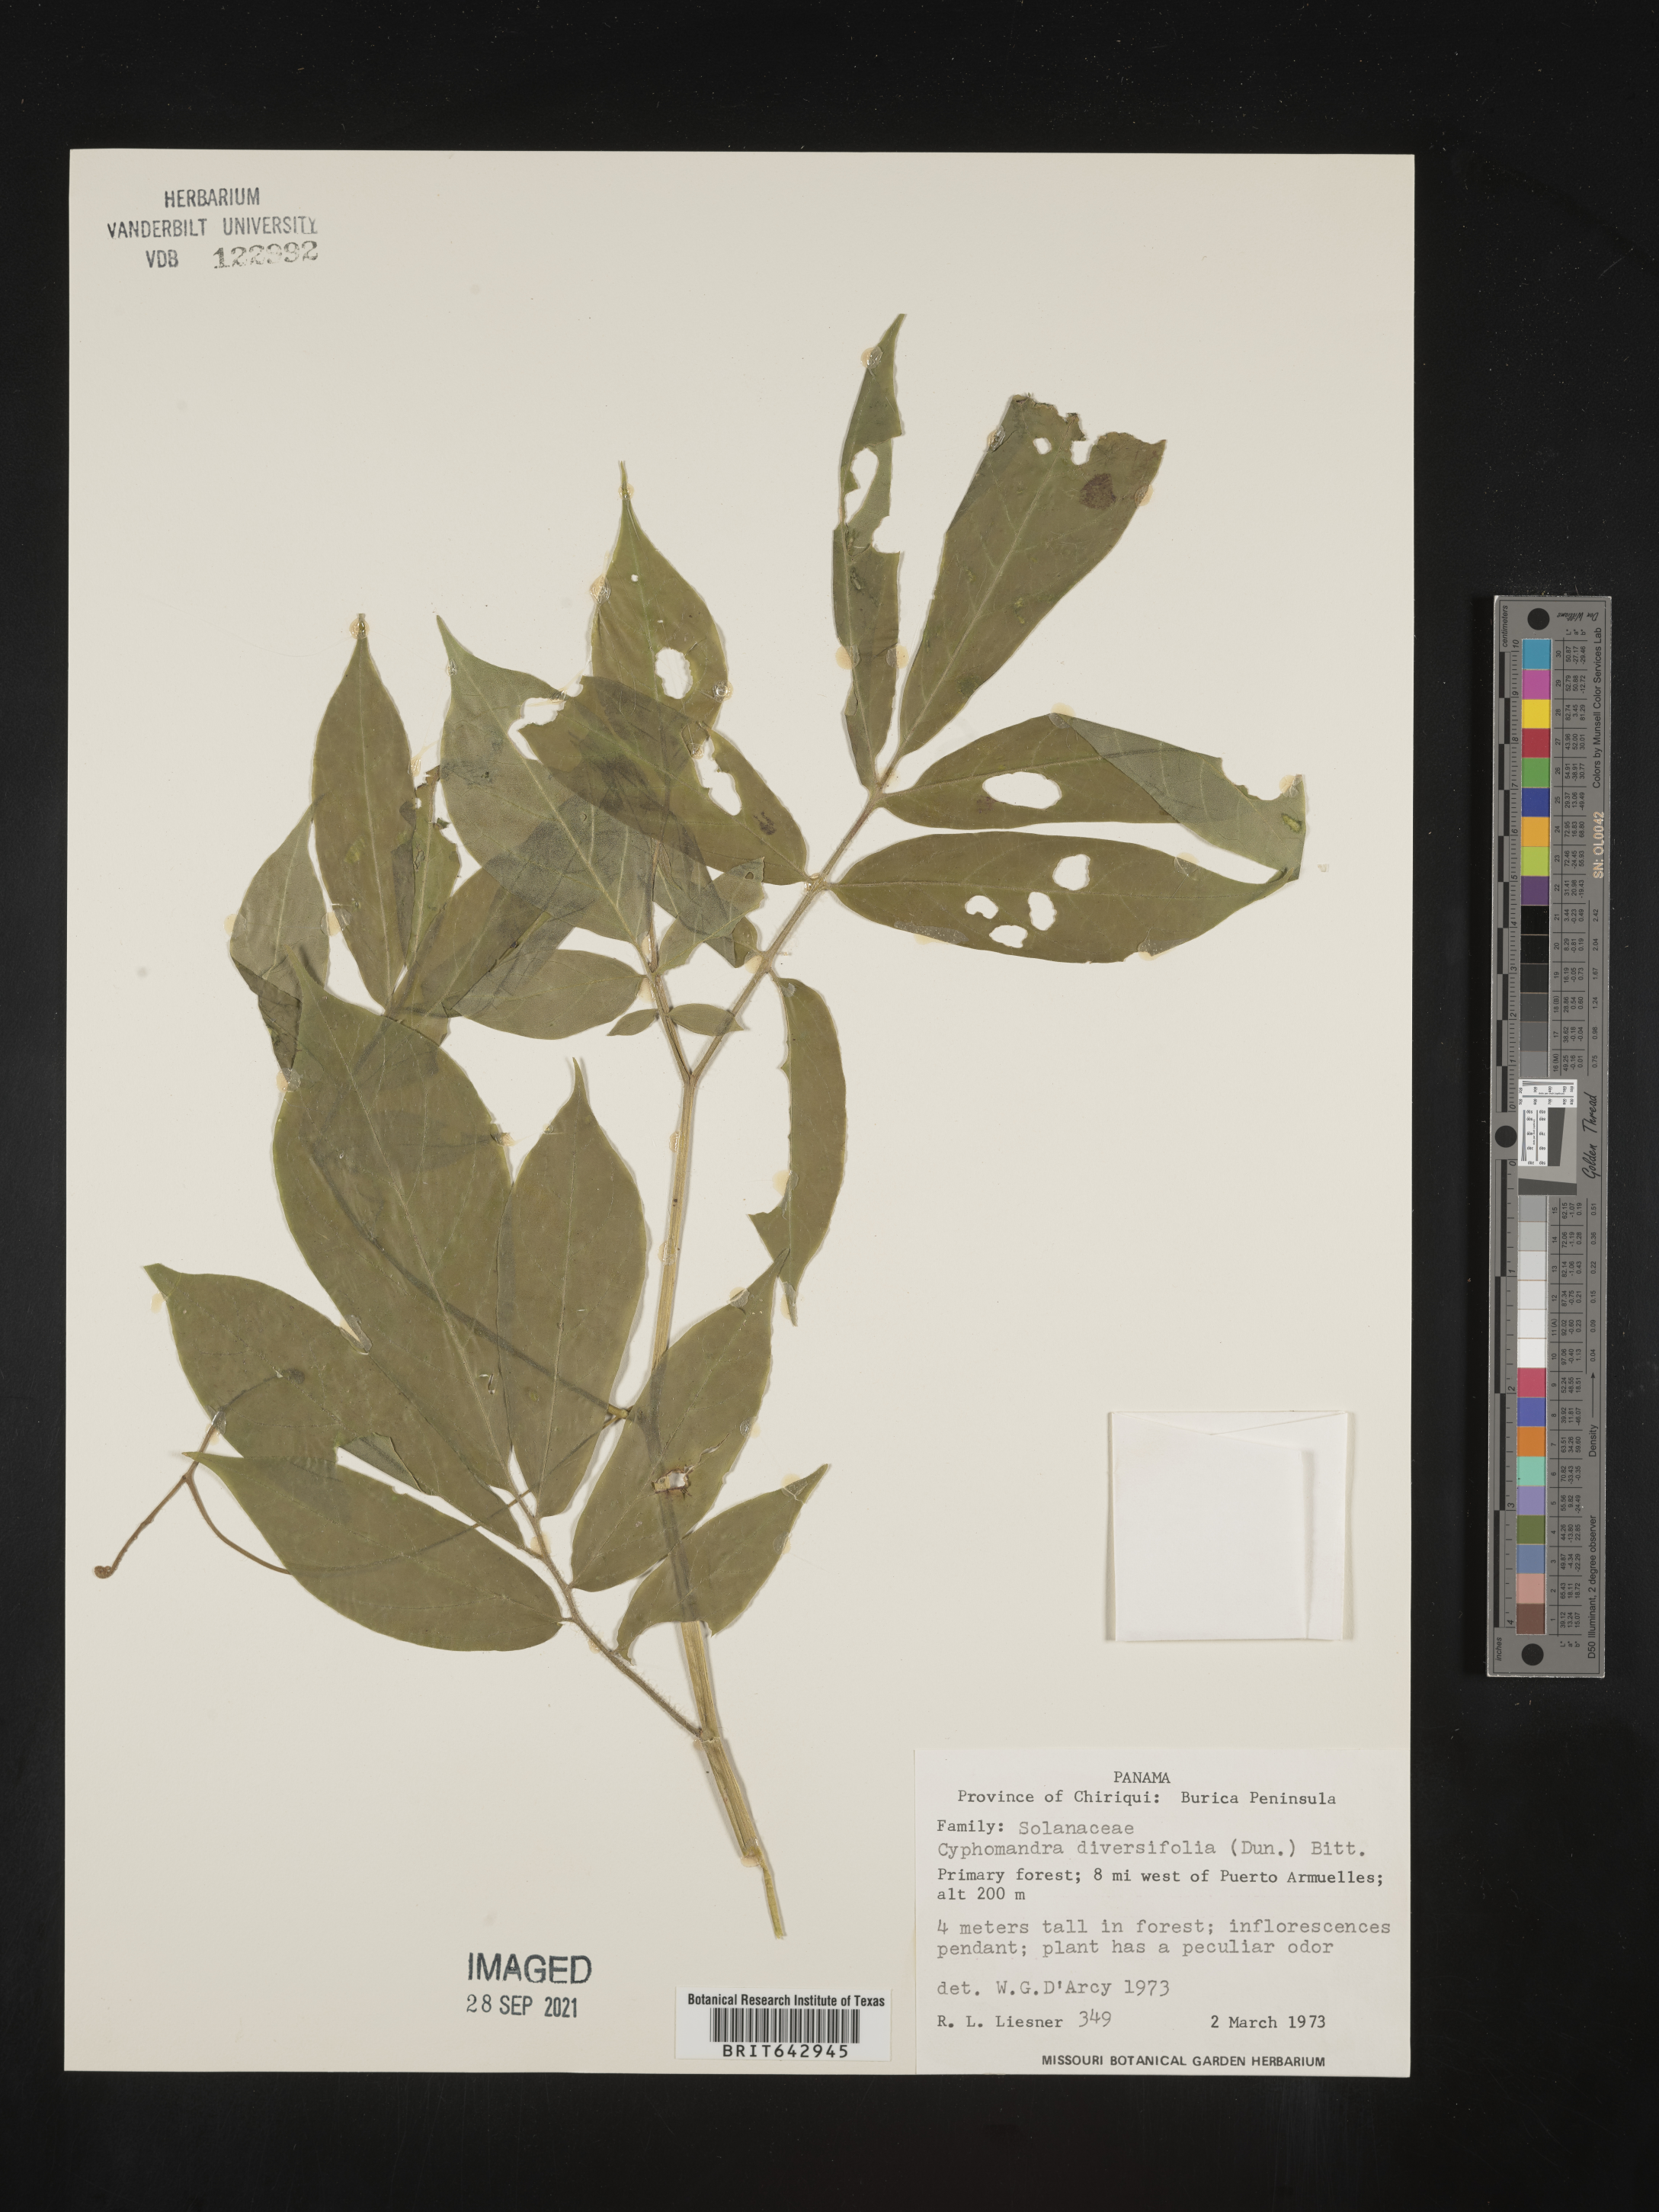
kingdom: Plantae
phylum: Tracheophyta
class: Magnoliopsida
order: Solanales
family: Solanaceae
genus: Solanum
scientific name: Solanum
